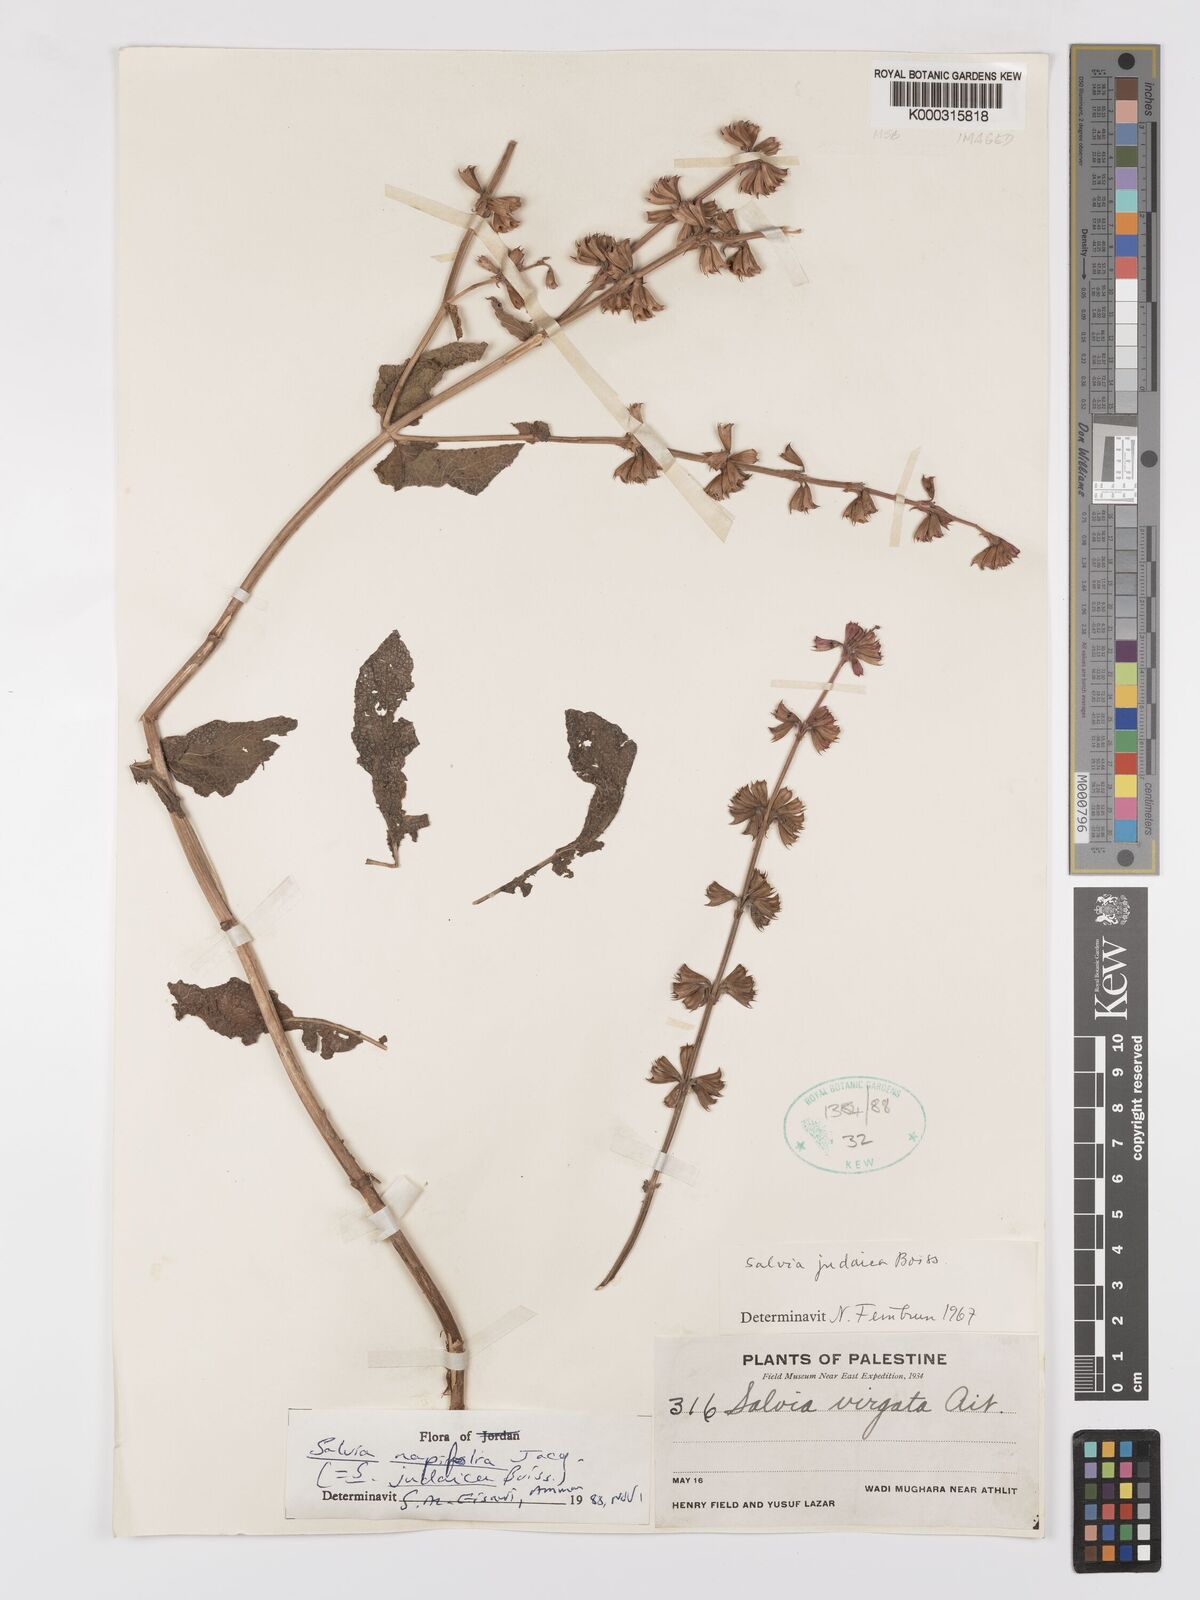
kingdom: Plantae
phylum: Tracheophyta
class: Magnoliopsida
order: Lamiales
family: Lamiaceae
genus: Salvia
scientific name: Salvia judaica
